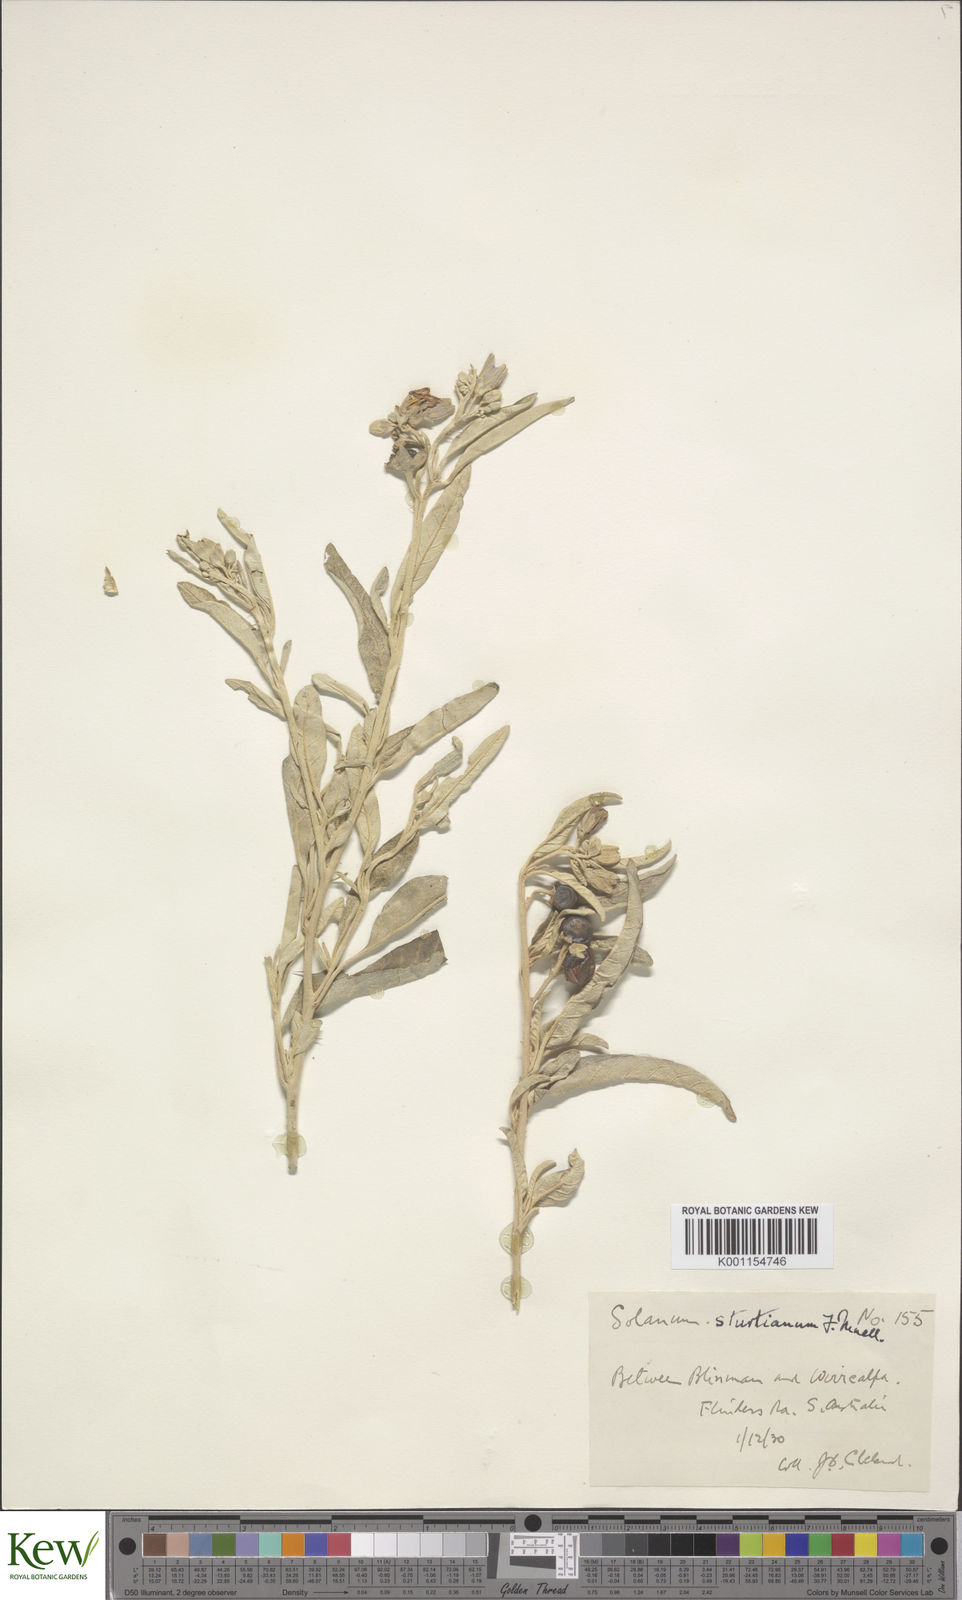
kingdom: Plantae
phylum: Tracheophyta
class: Magnoliopsida
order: Solanales
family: Solanaceae
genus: Solanum
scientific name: Solanum sturtianum
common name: Thargomindah nightshade
